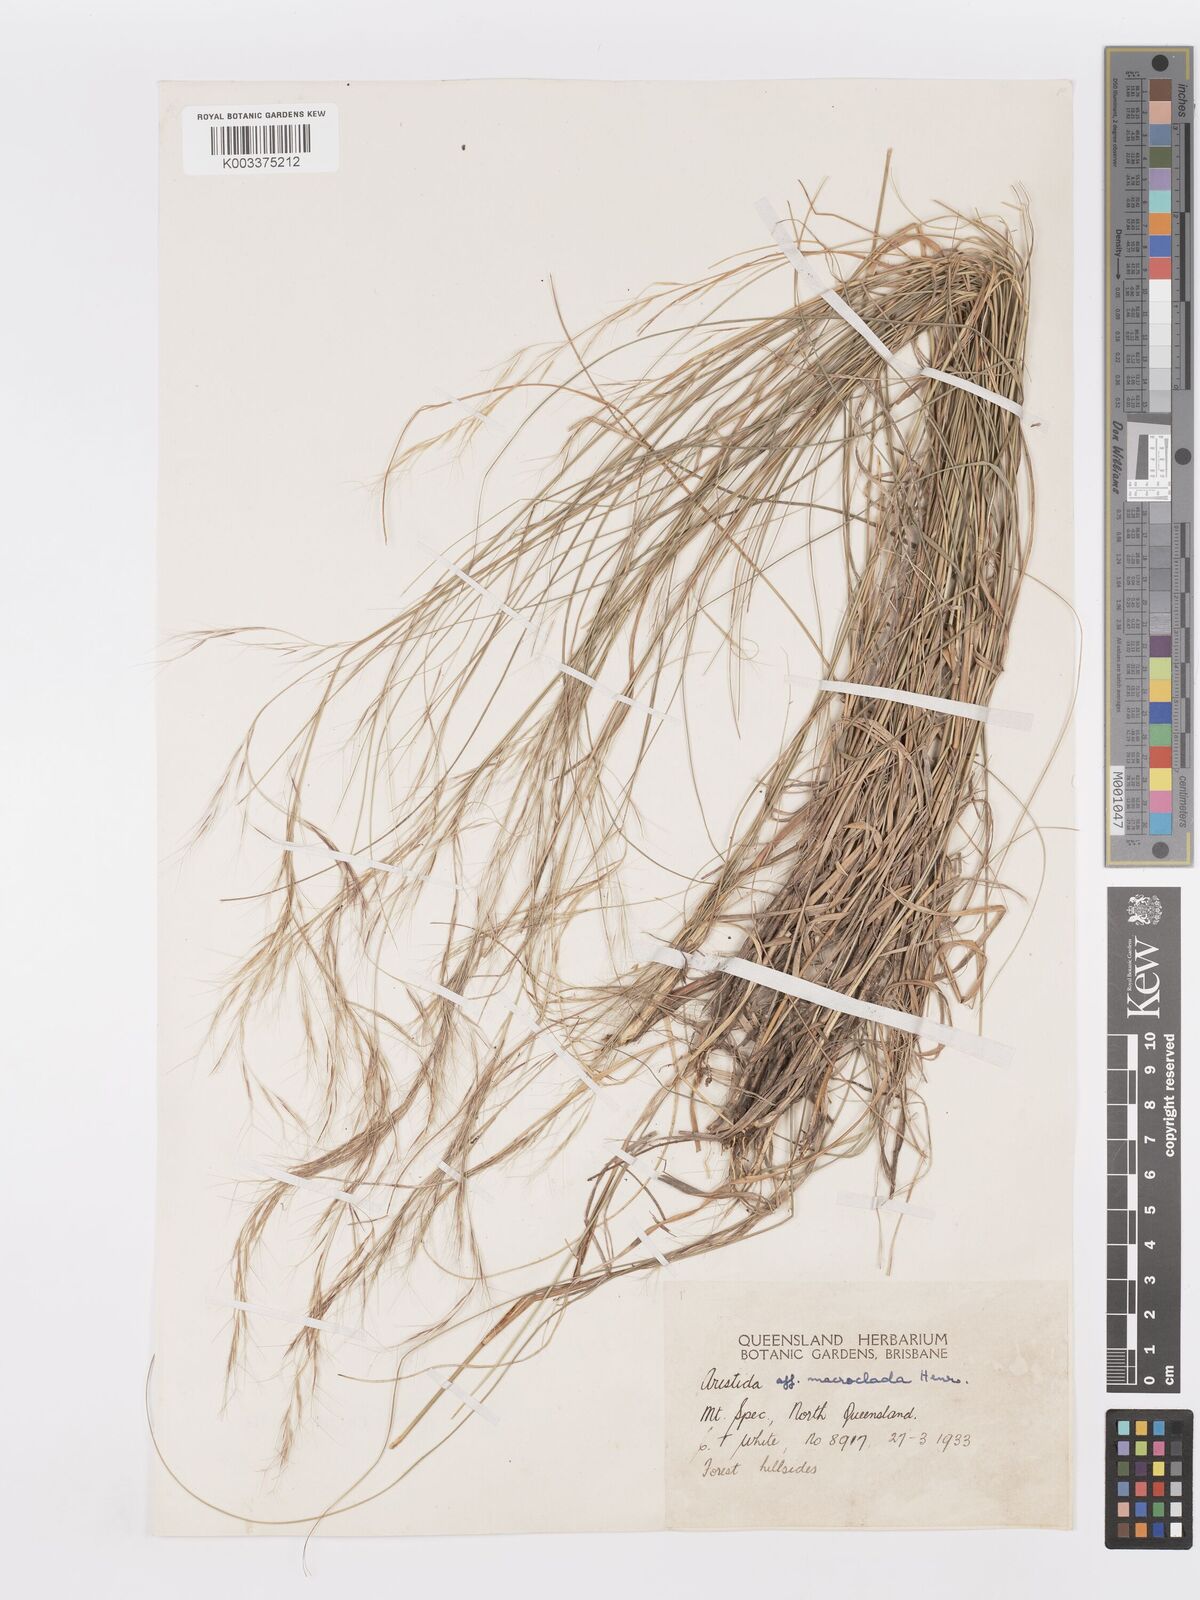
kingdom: Plantae
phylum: Tracheophyta
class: Liliopsida
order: Poales
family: Poaceae
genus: Aristida
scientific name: Aristida macroclada
